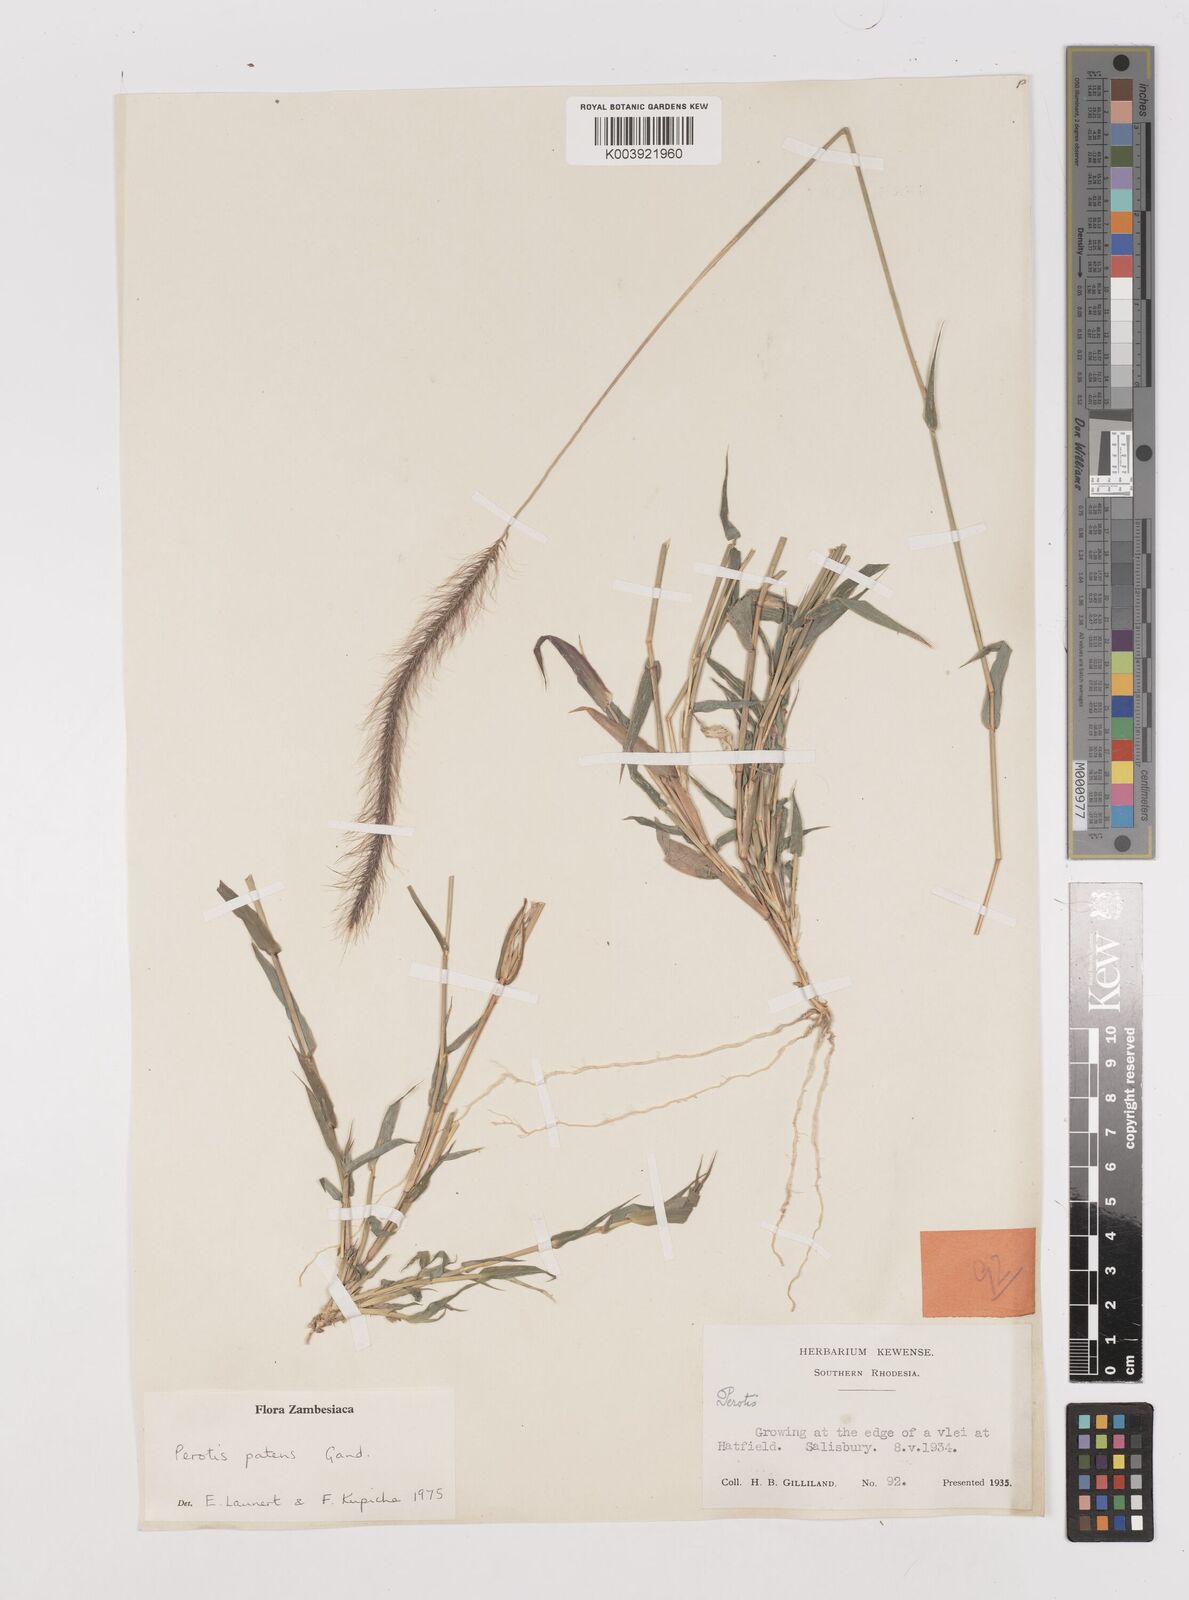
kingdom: Plantae
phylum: Tracheophyta
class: Liliopsida
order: Poales
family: Poaceae
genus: Perotis
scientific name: Perotis patens
